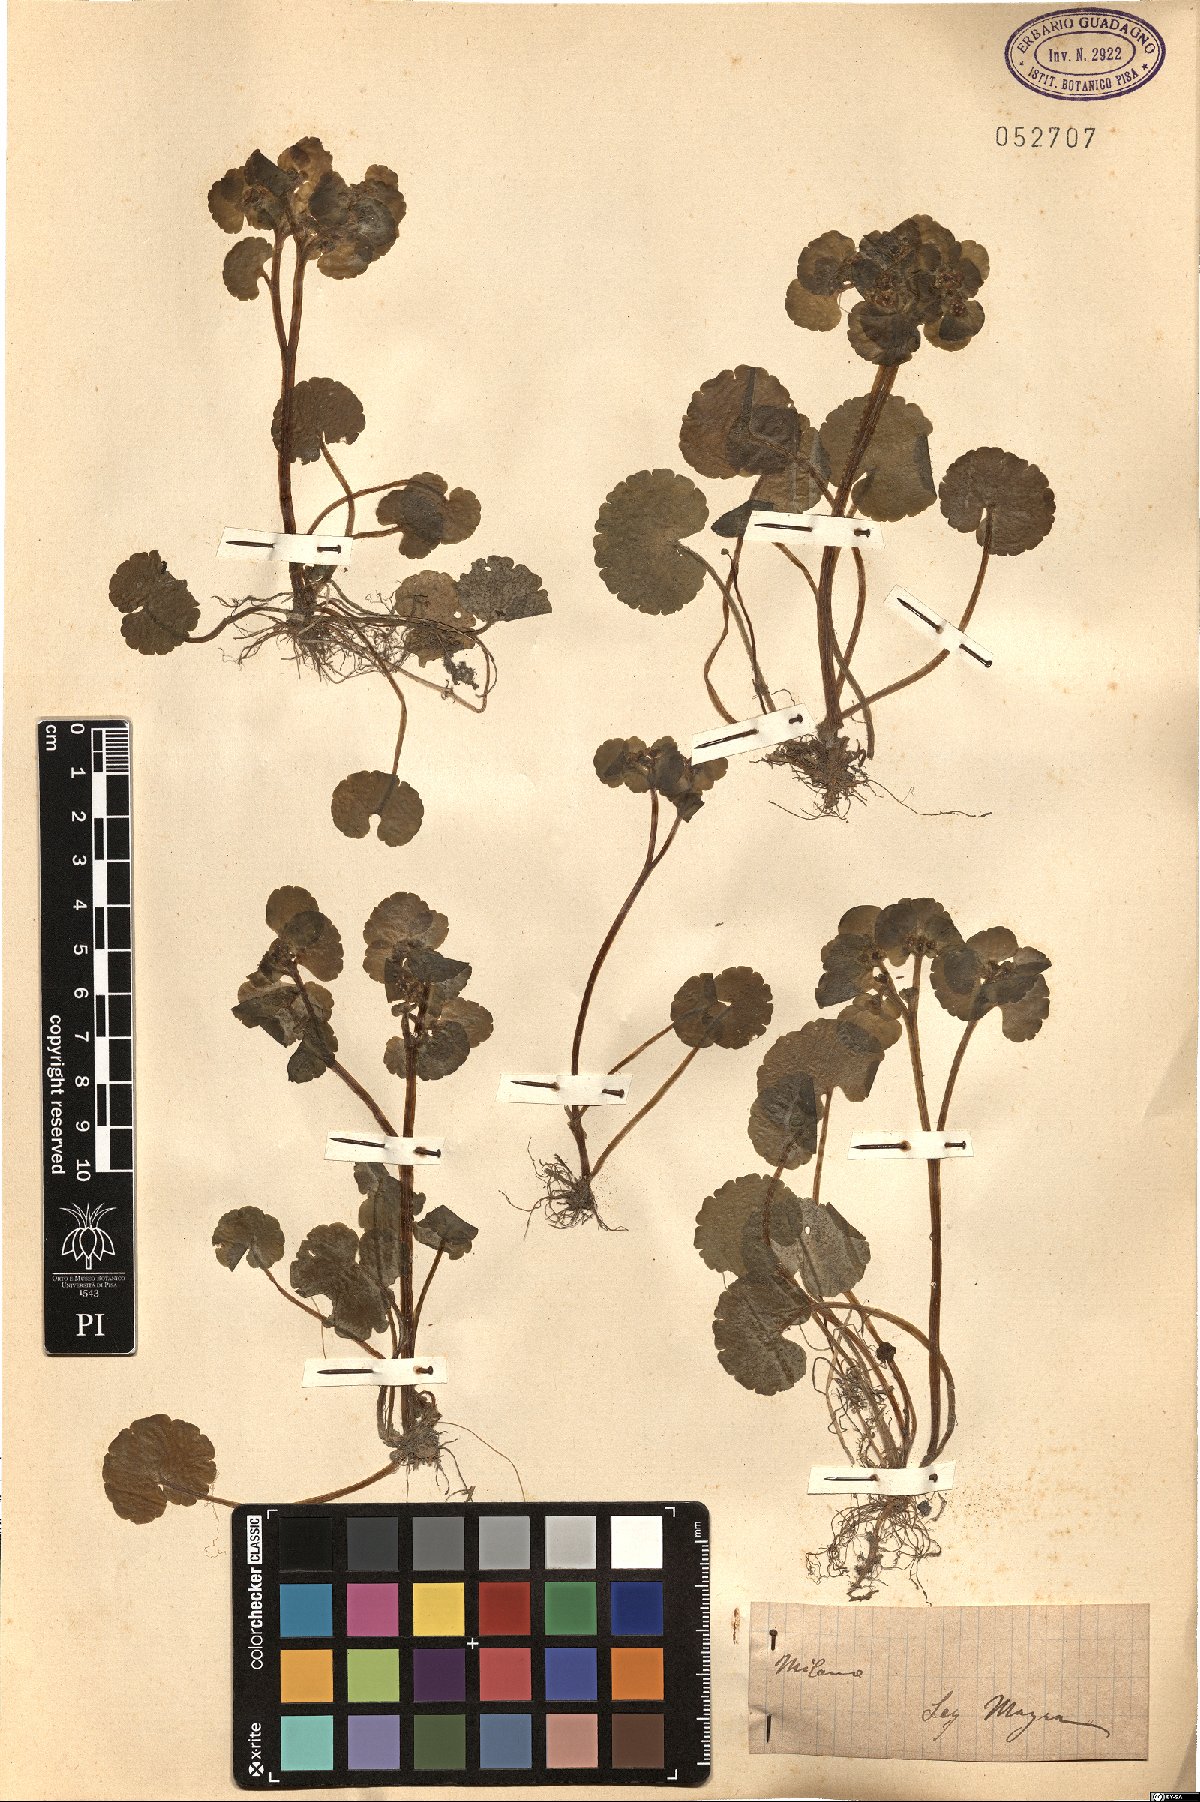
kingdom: Plantae
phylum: Tracheophyta
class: Magnoliopsida
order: Saxifragales
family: Saxifragaceae
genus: Chrysosplenium
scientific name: Chrysosplenium
